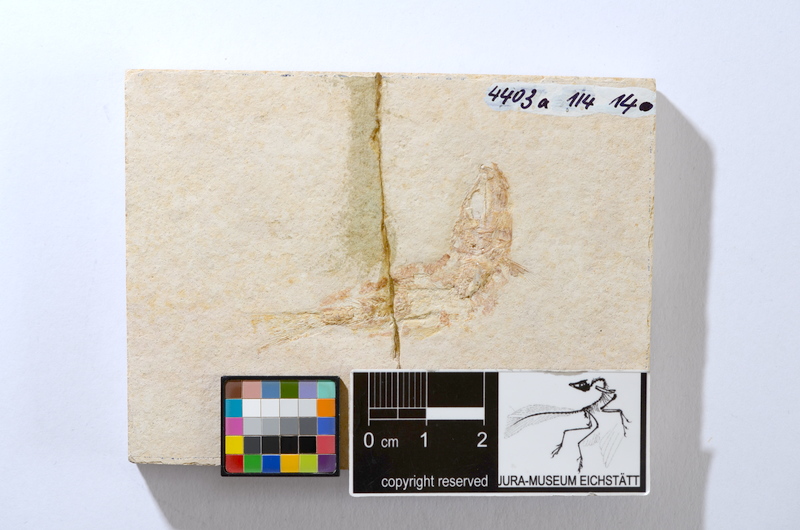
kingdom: Animalia
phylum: Chordata
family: Ascalaboidae
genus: Tharsis
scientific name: Tharsis dubius
